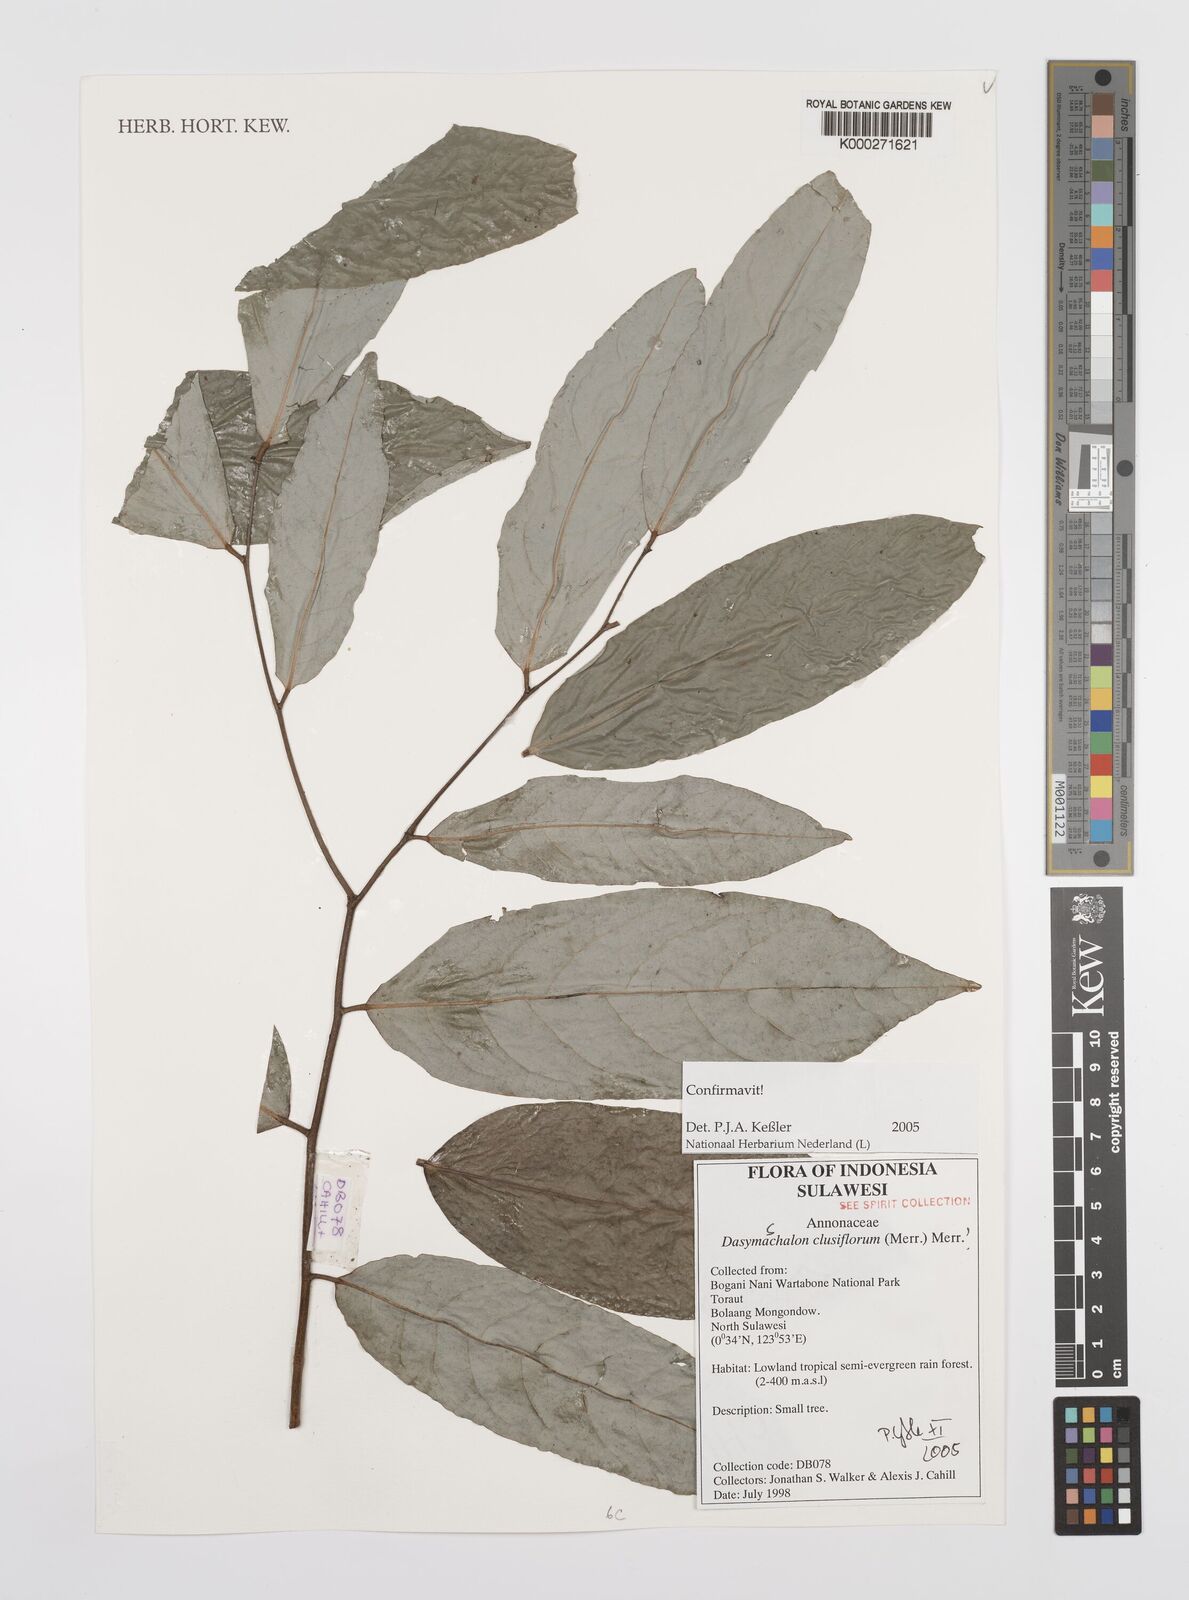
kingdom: Plantae
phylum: Tracheophyta
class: Magnoliopsida
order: Magnoliales
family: Annonaceae
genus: Dasymaschalon
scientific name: Dasymaschalon clusiflorum
